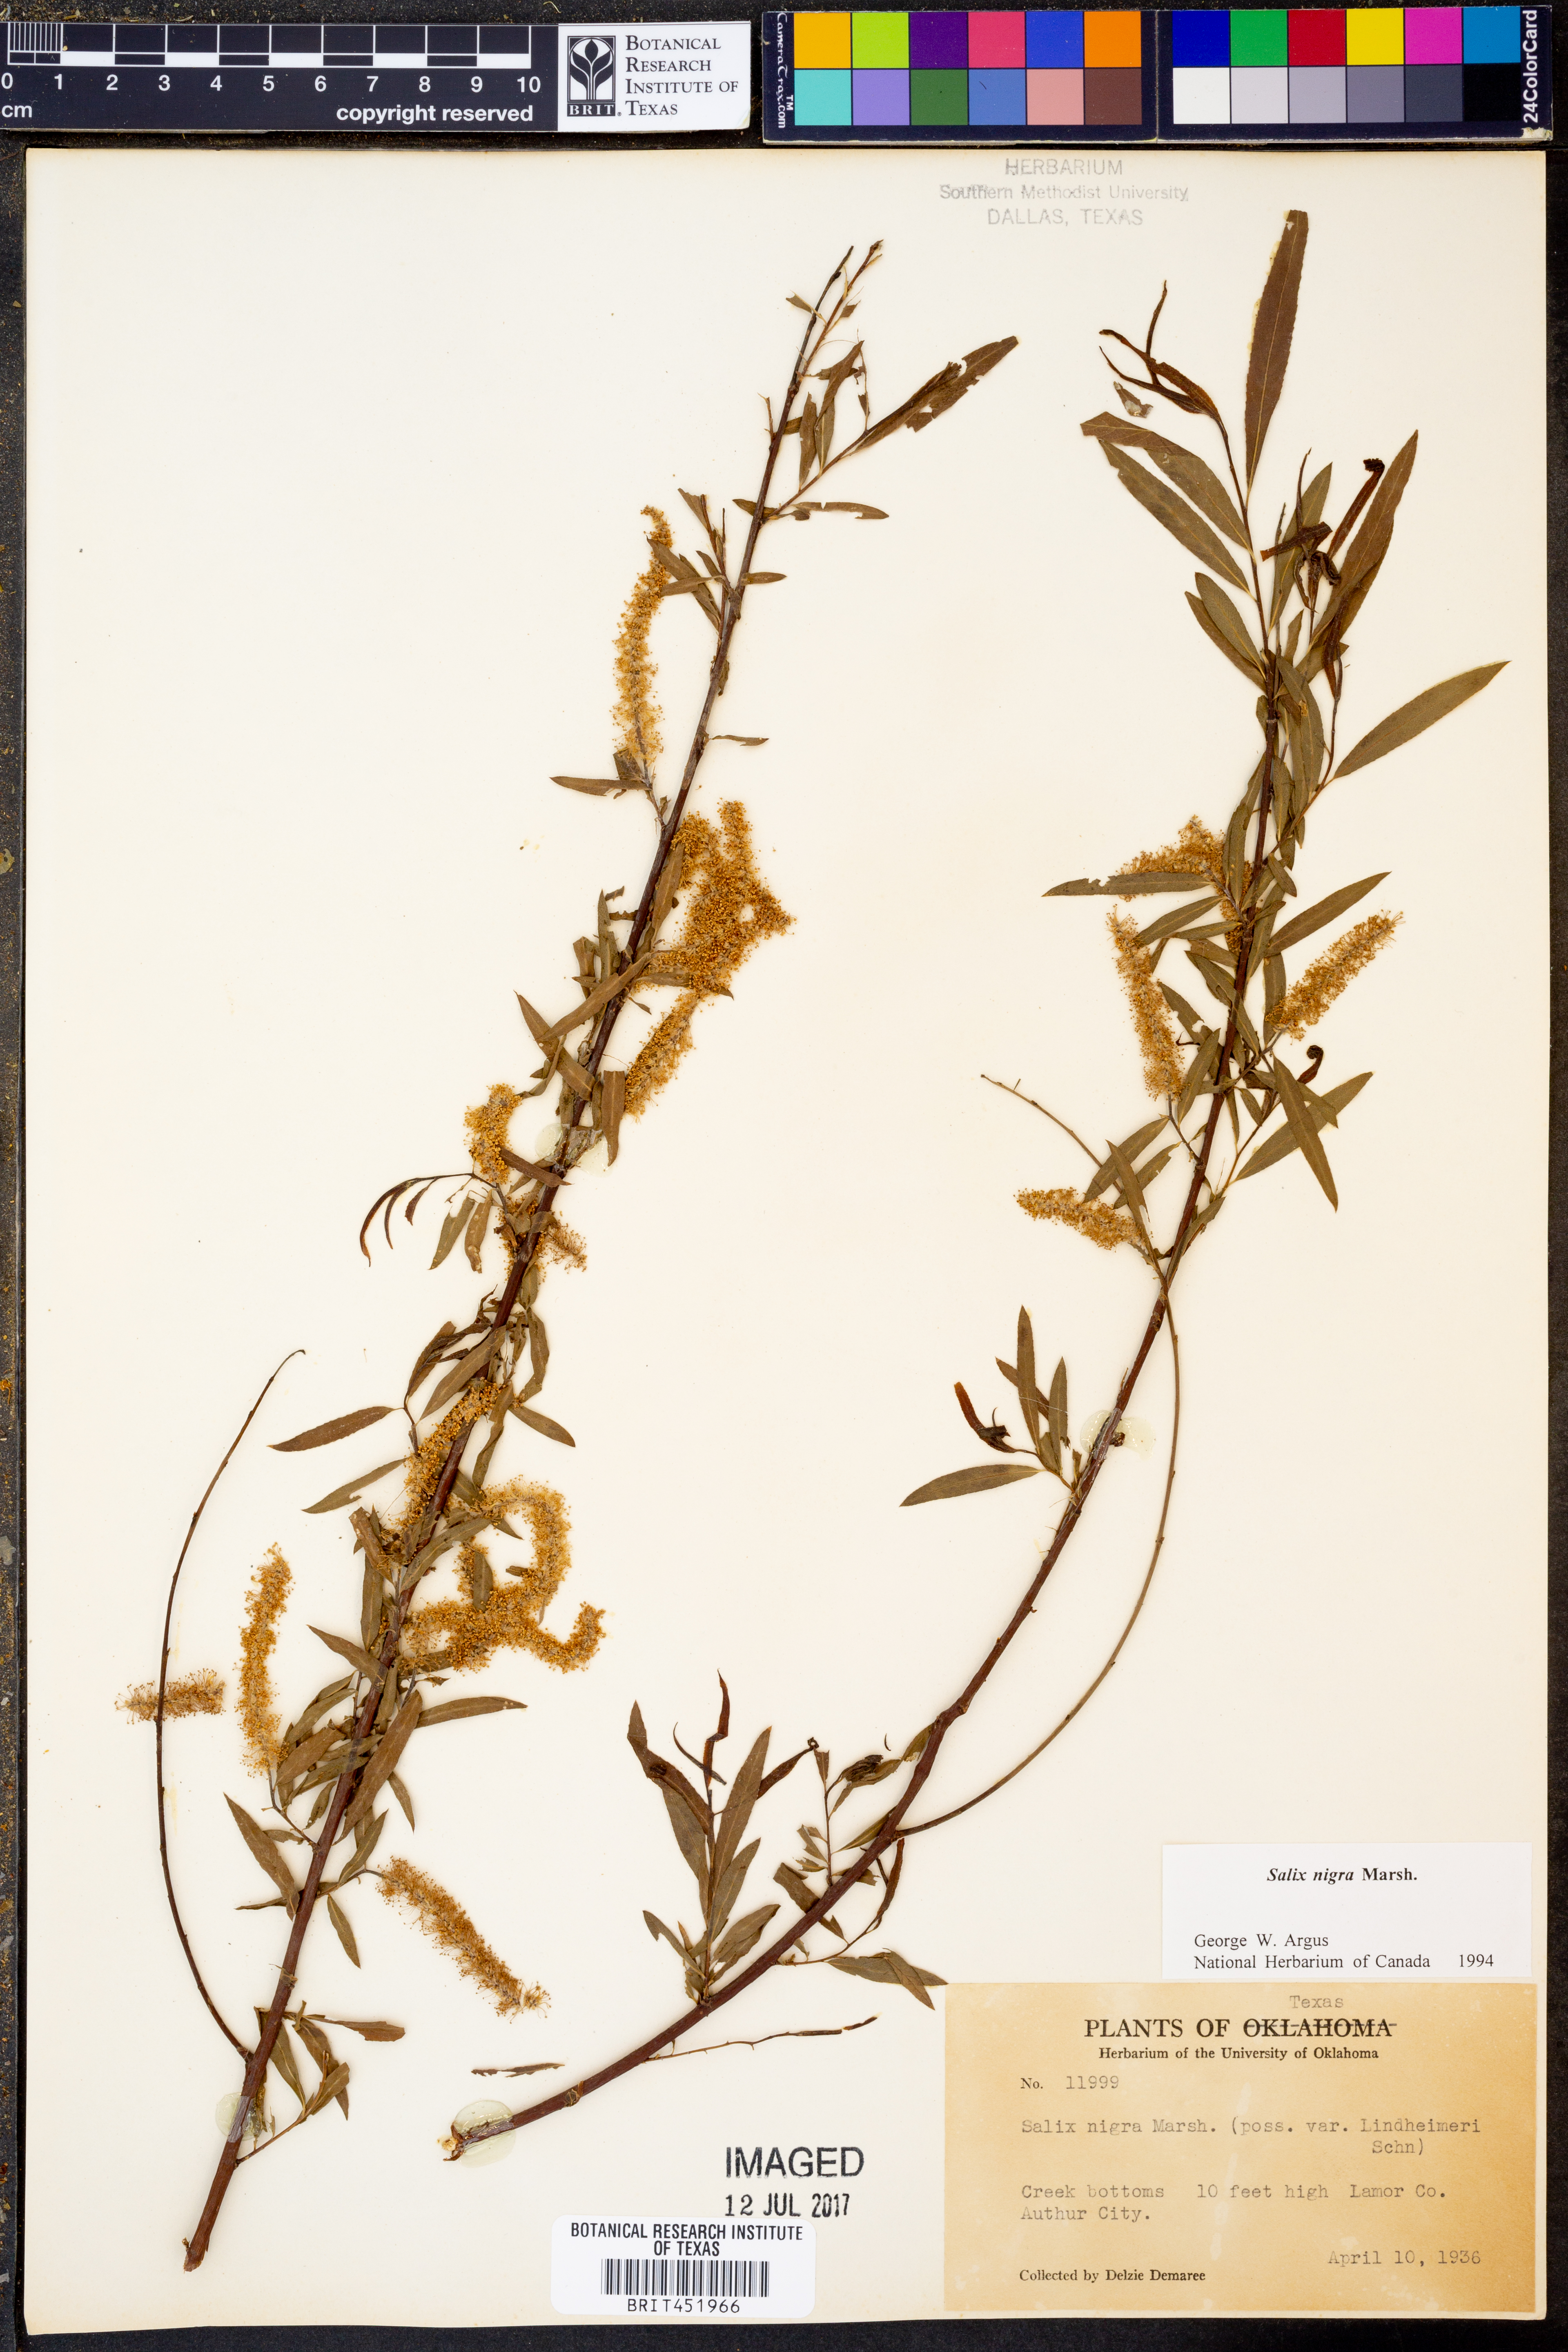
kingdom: Plantae
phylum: Tracheophyta
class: Magnoliopsida
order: Malpighiales
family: Salicaceae
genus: Salix
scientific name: Salix nigra
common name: Black willow
